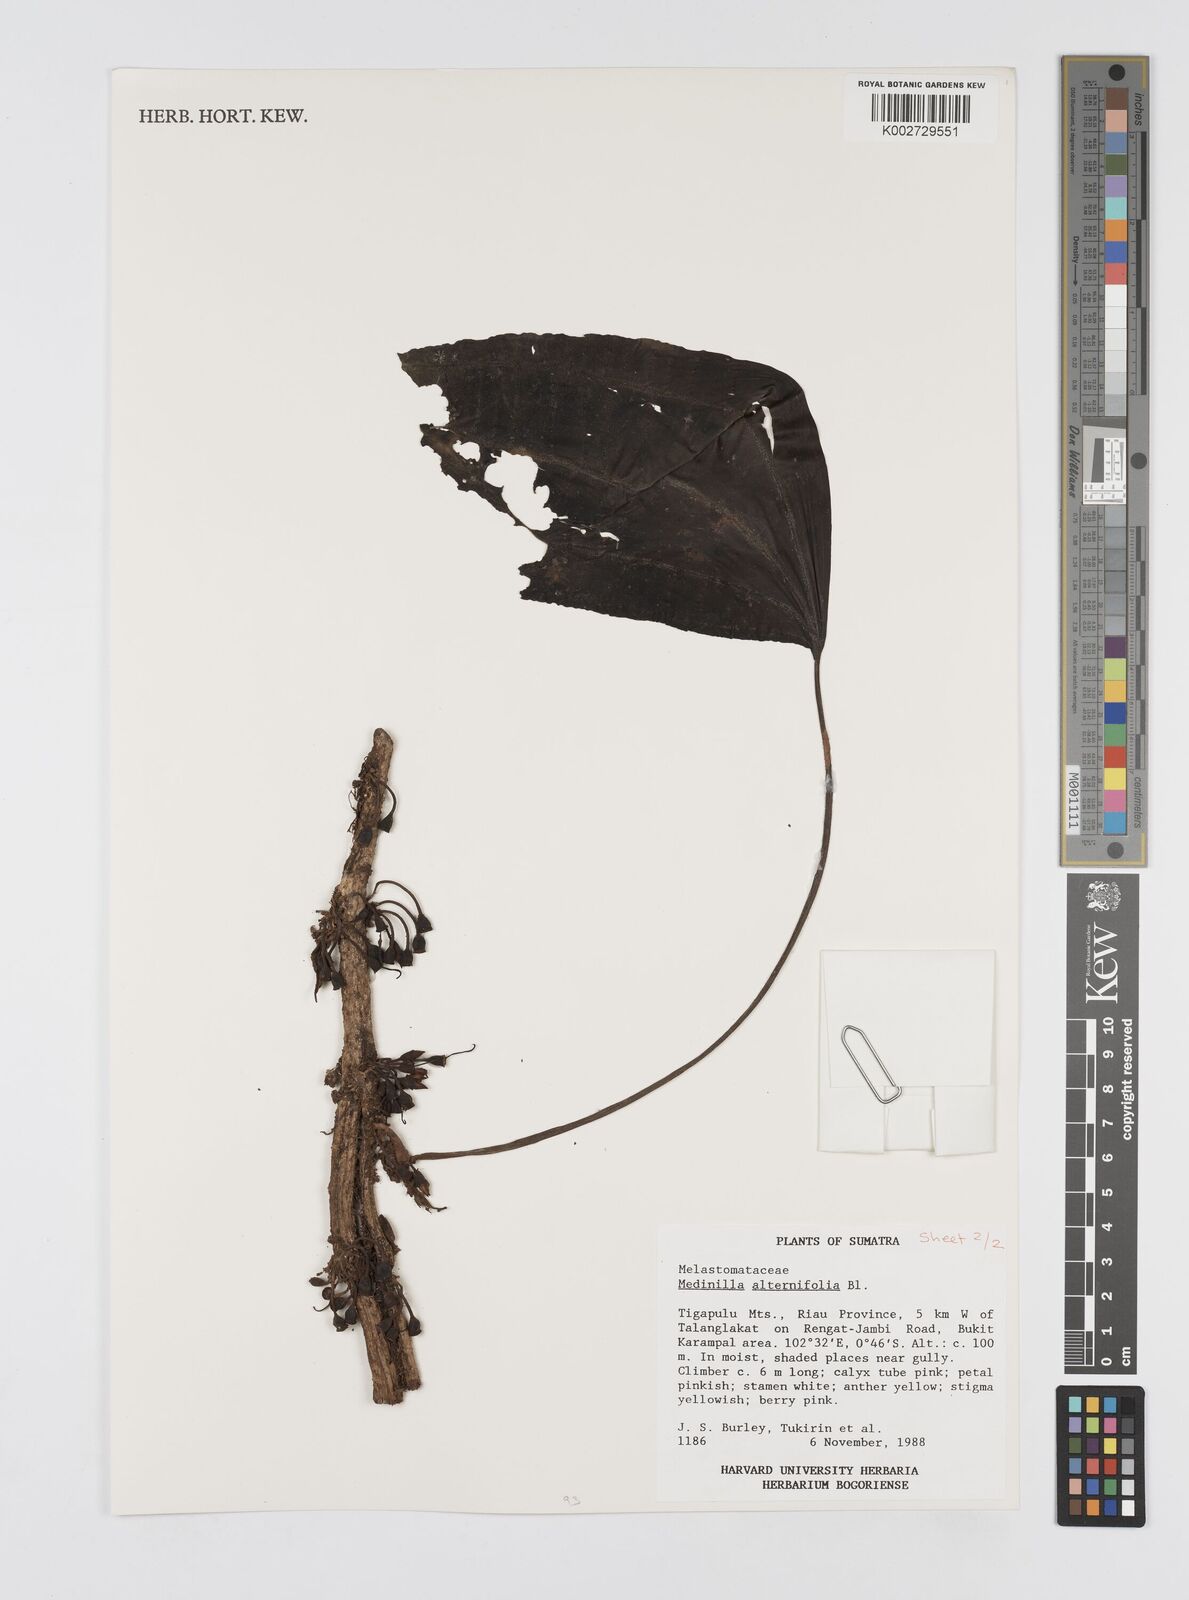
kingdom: Plantae
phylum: Tracheophyta
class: Magnoliopsida
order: Myrtales
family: Melastomataceae
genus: Heteroblemma
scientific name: Heteroblemma alternifolium
